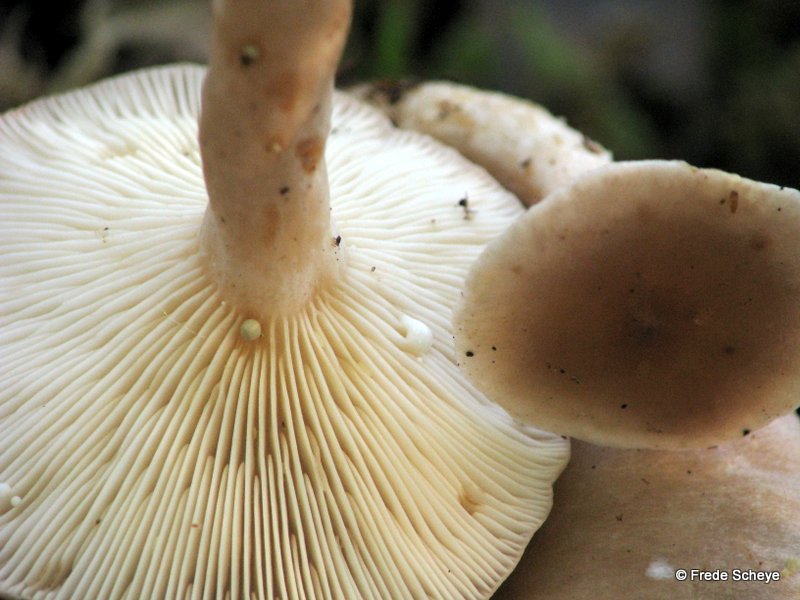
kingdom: Fungi
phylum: Basidiomycota
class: Agaricomycetes
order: Russulales
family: Russulaceae
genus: Lactarius
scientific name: Lactarius vietus
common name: violetgrå mælkehat
